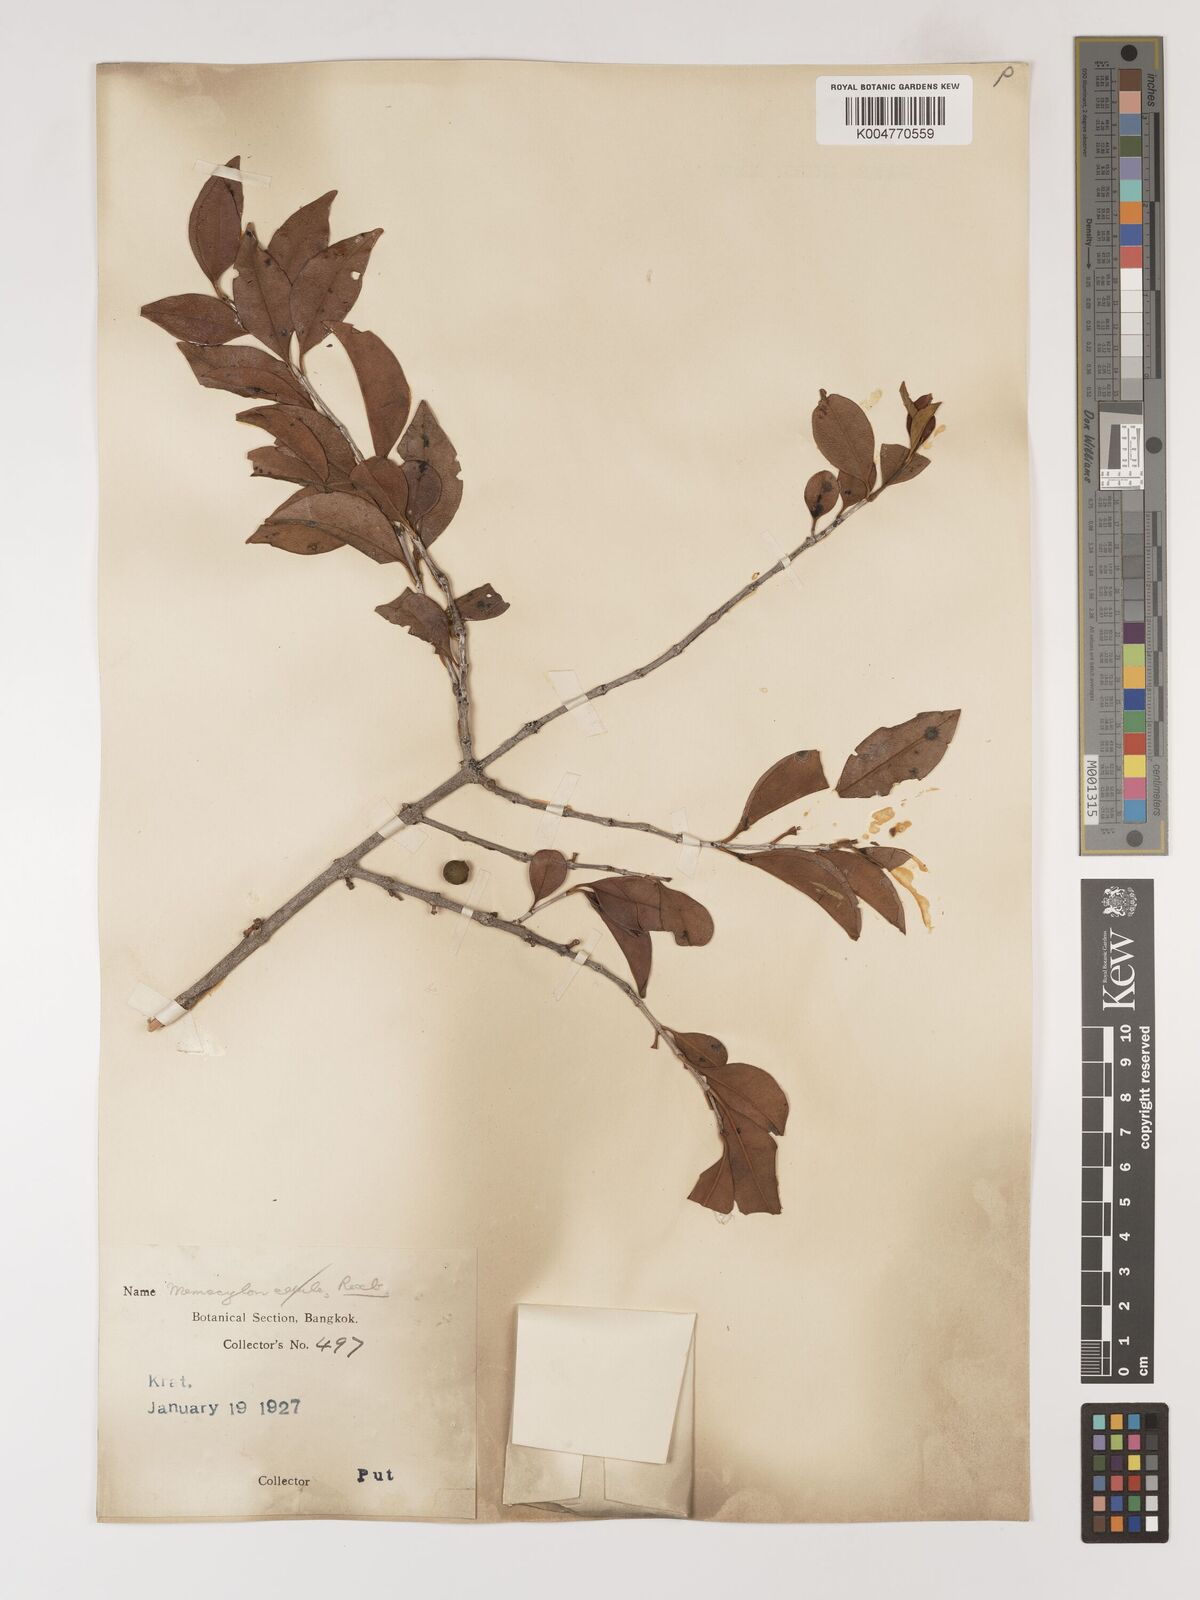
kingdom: Plantae
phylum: Tracheophyta
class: Magnoliopsida
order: Myrtales
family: Melastomataceae
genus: Memecylon
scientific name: Memecylon scutellatum
